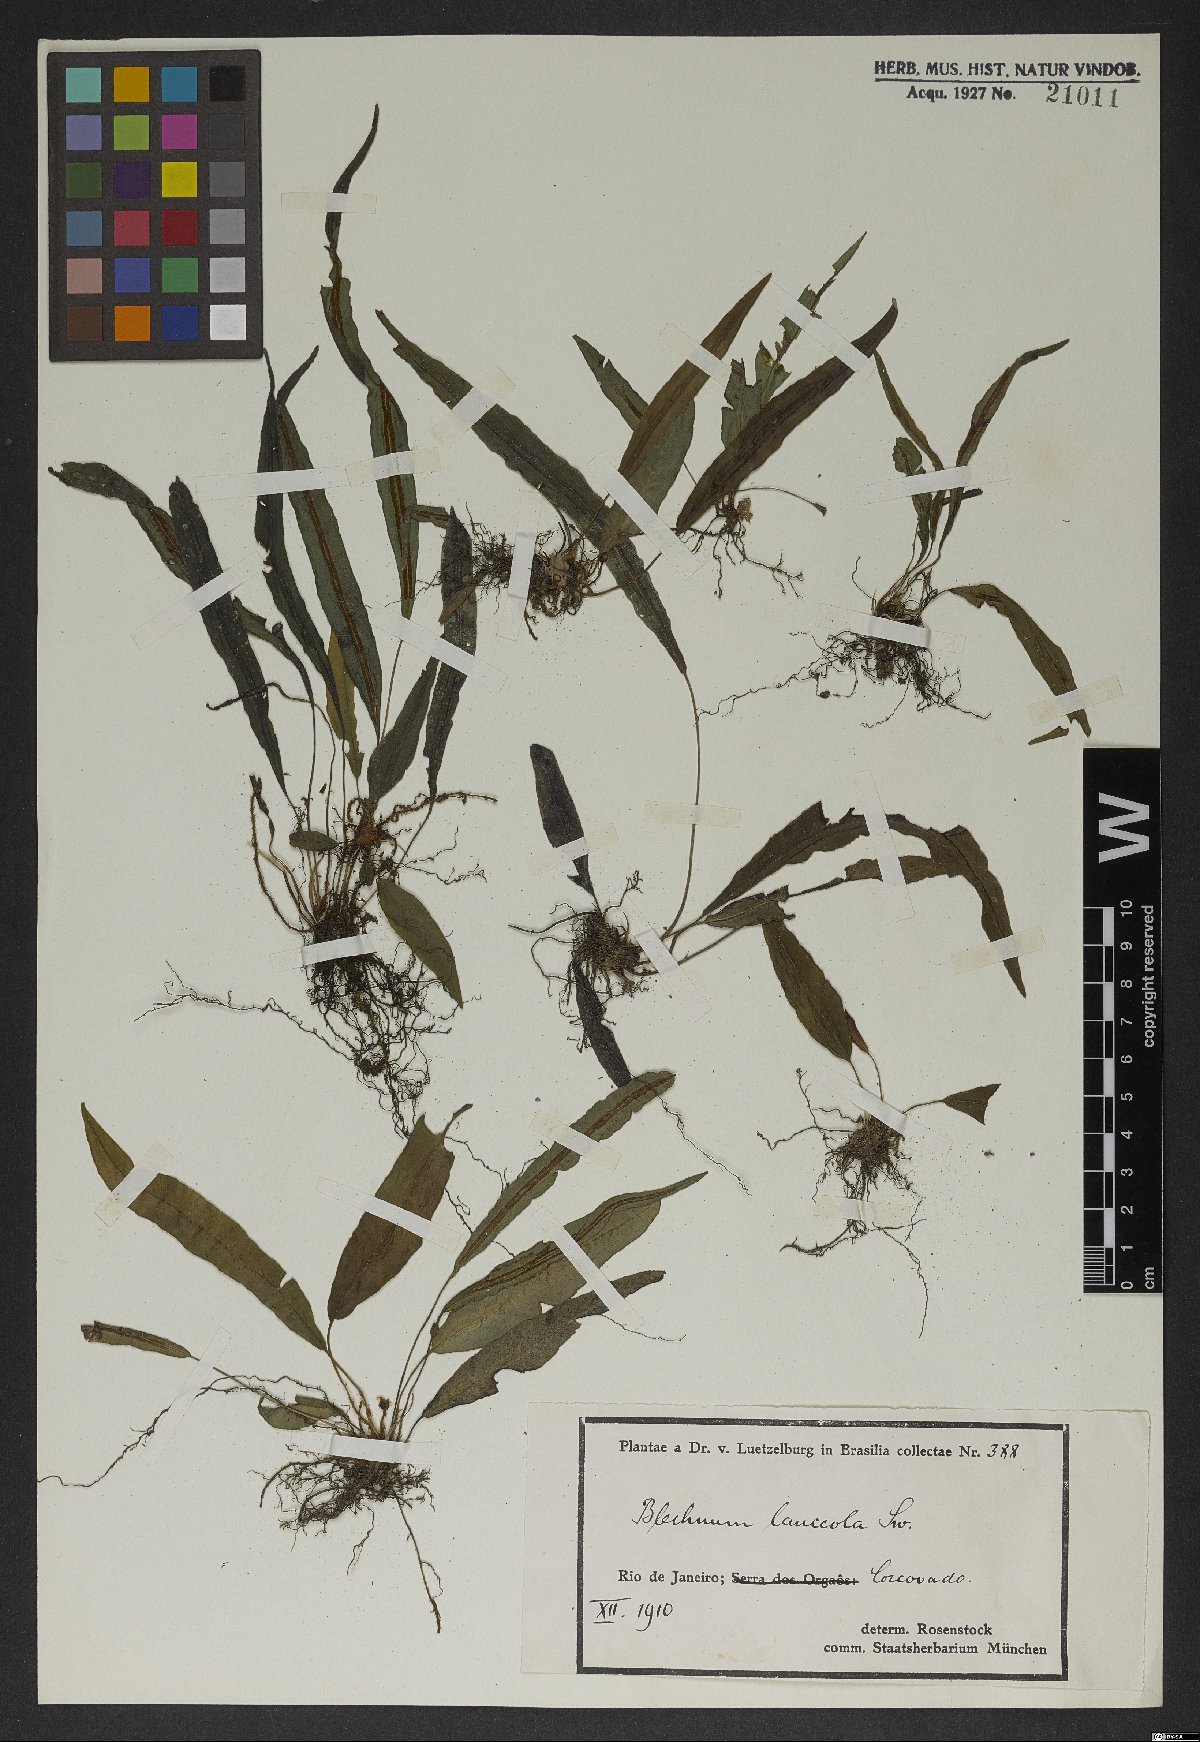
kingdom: Plantae
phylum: Tracheophyta
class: Polypodiopsida
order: Polypodiales
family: Blechnaceae
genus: Blechnum
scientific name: Blechnum lanceola
